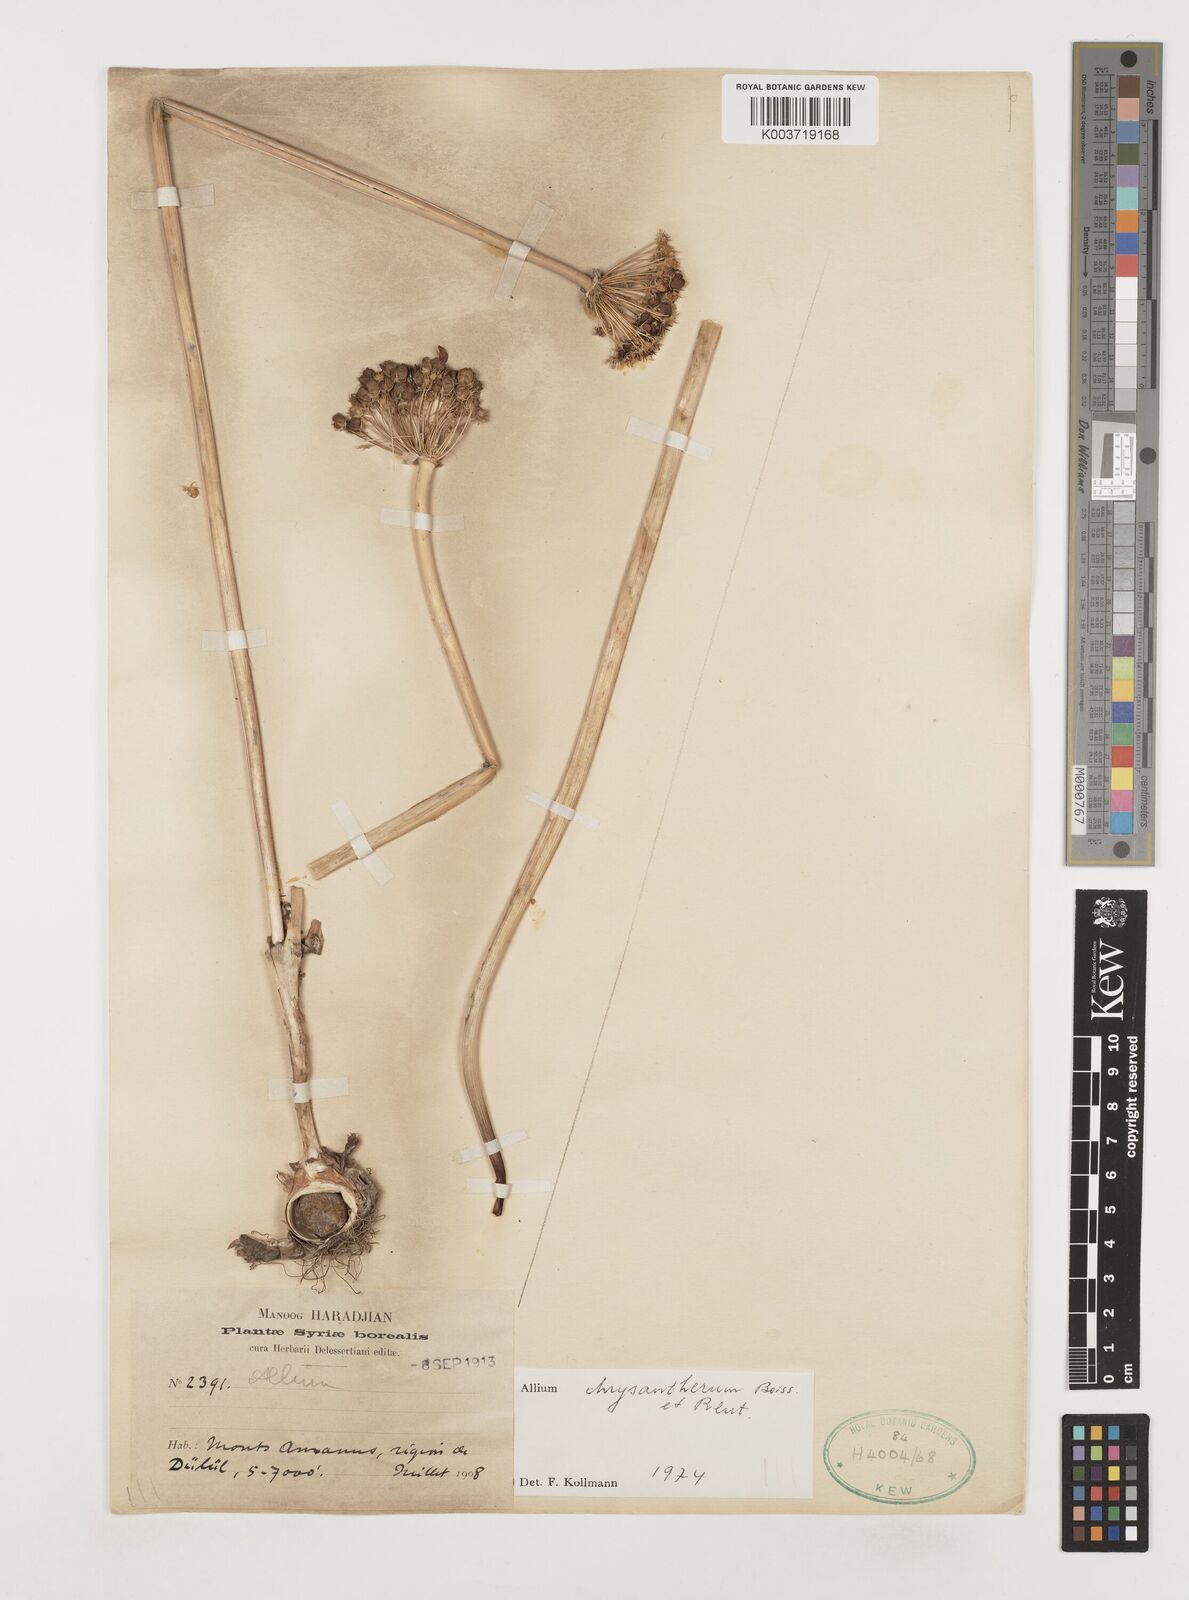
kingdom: Plantae
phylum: Tracheophyta
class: Liliopsida
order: Asparagales
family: Amaryllidaceae
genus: Allium
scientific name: Allium chrysantherum
